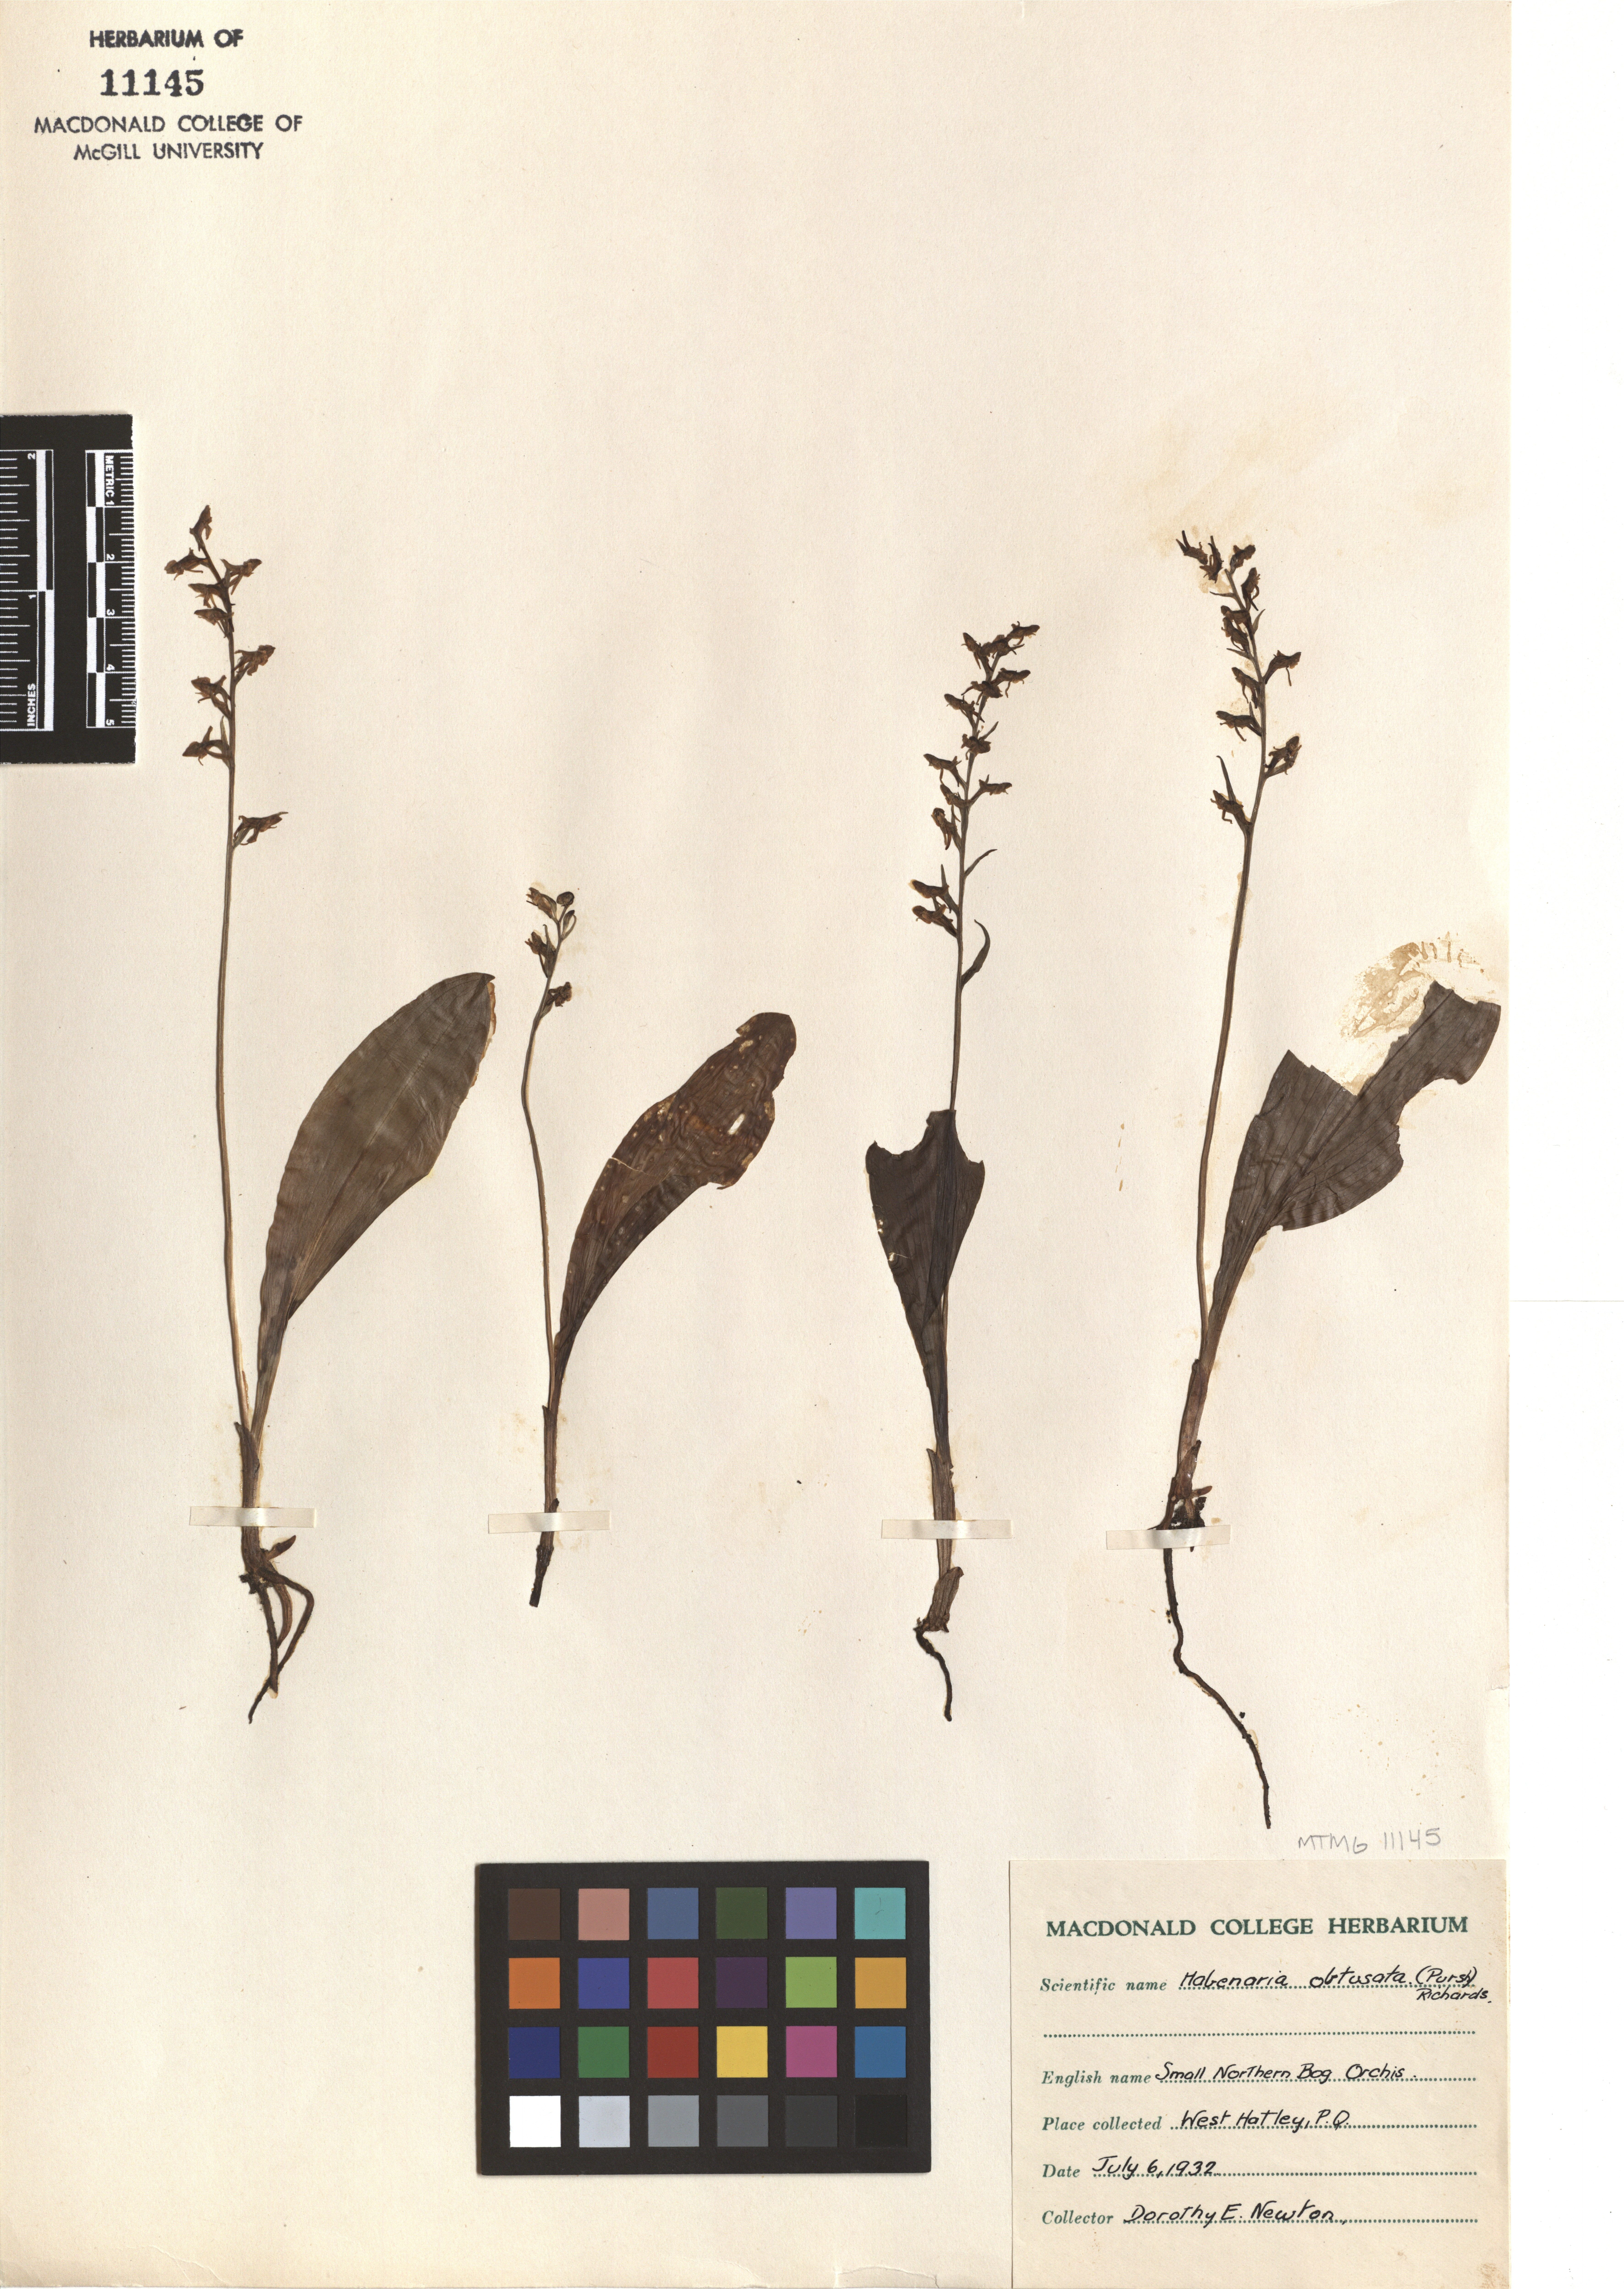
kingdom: Plantae
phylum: Tracheophyta
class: Liliopsida
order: Asparagales
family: Orchidaceae
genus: Platanthera
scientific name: Platanthera obtusata
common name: Blunt bog orchid
